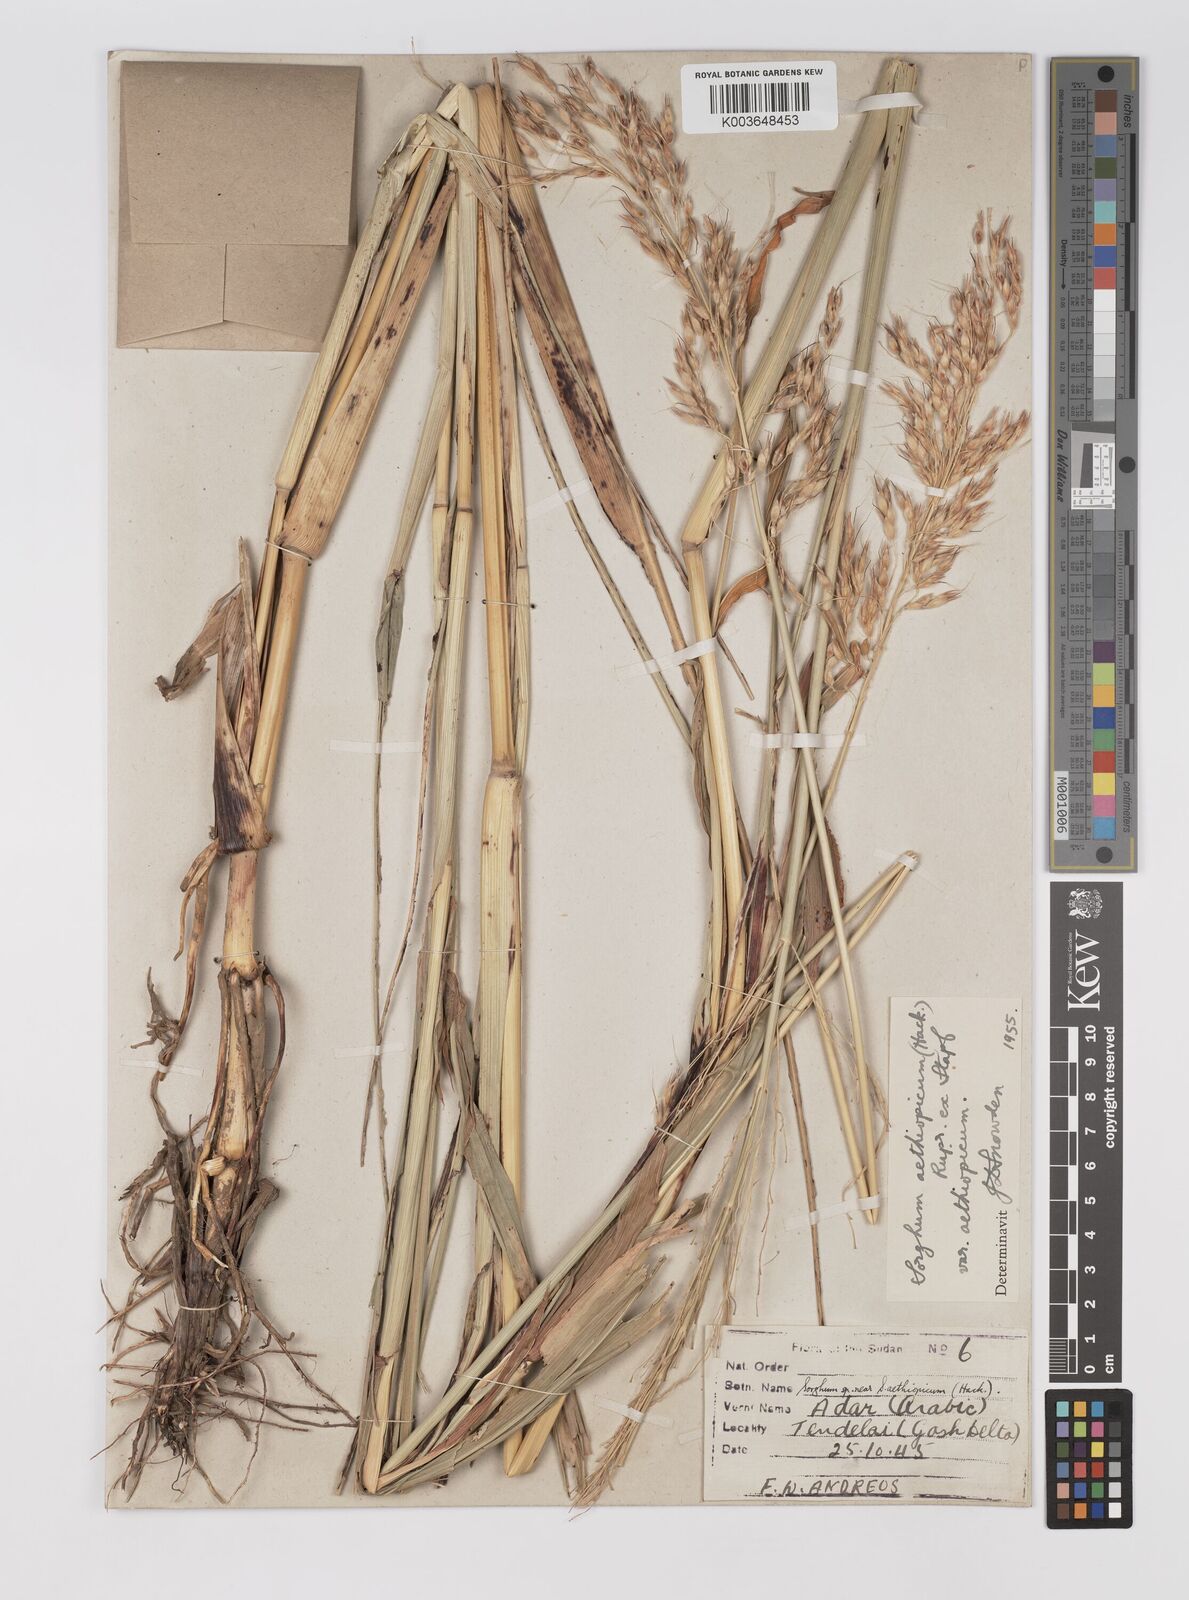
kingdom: Plantae
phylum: Tracheophyta
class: Liliopsida
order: Poales
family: Poaceae
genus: Sorghum
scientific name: Sorghum arundinaceum
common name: Sorghum
